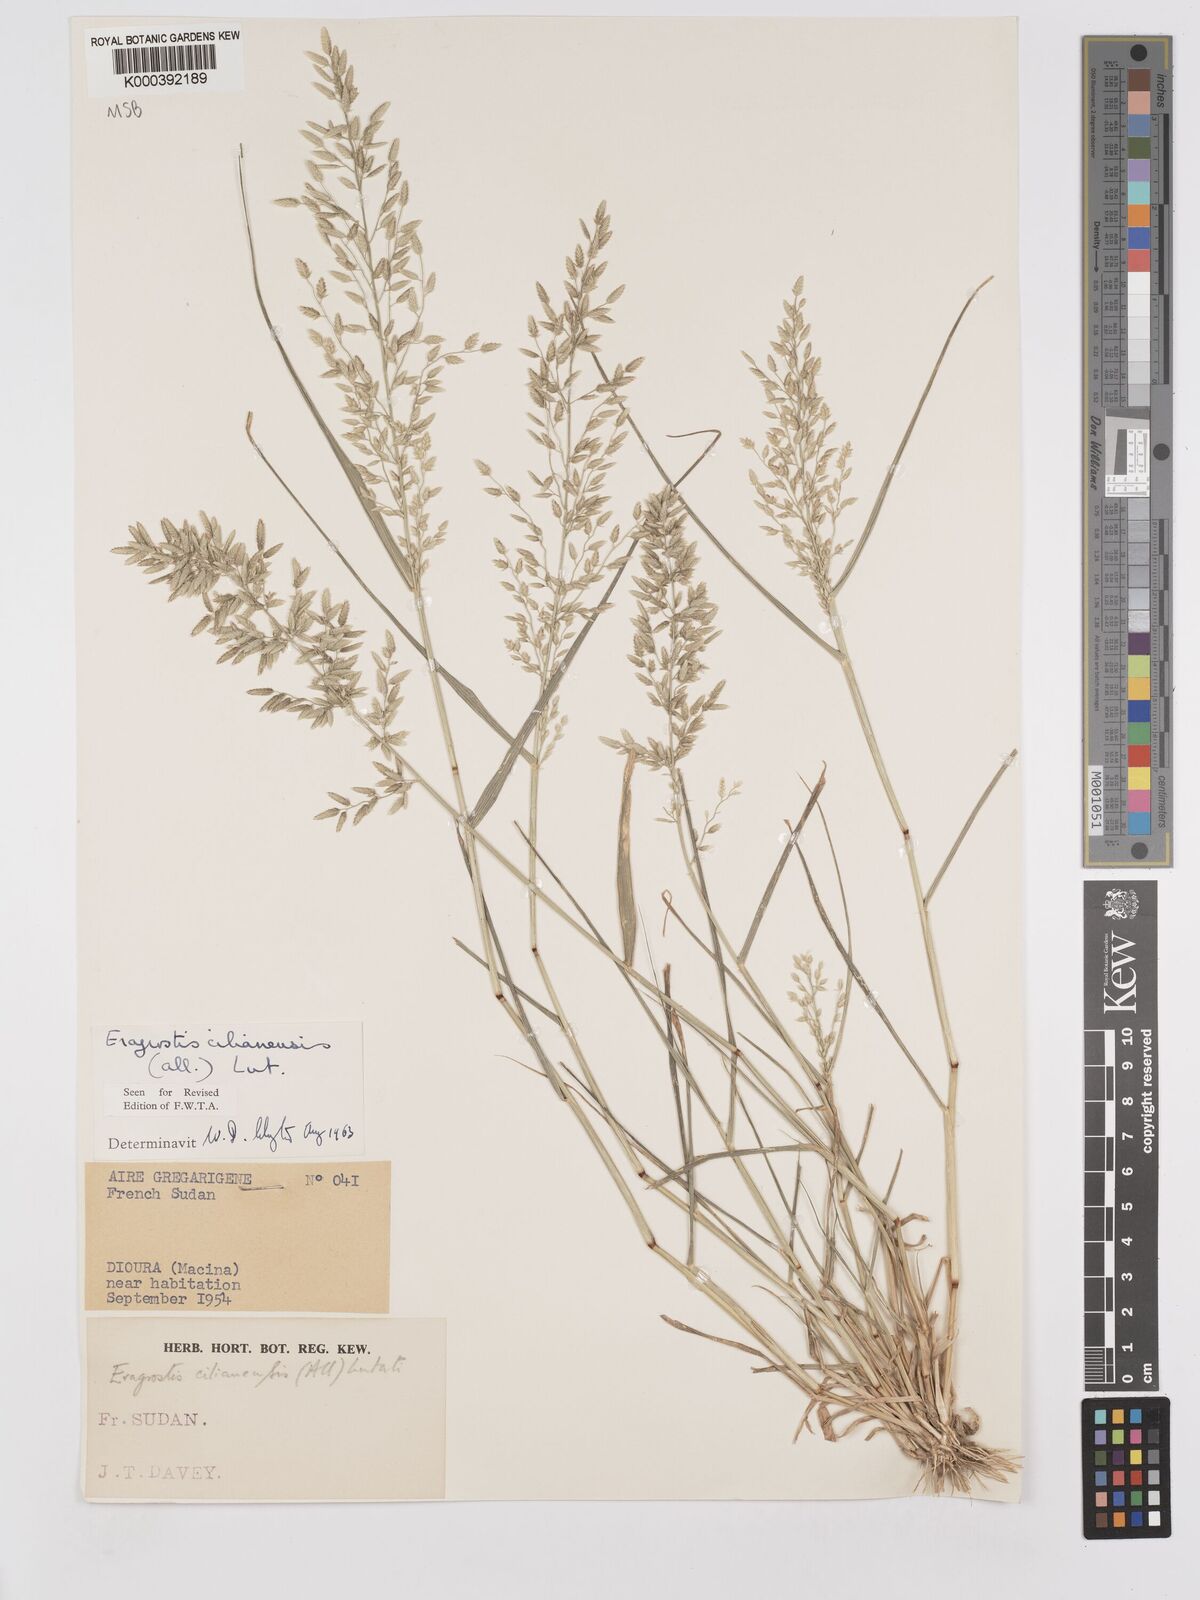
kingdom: Plantae
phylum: Tracheophyta
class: Liliopsida
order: Poales
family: Poaceae
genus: Eragrostis
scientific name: Eragrostis cilianensis
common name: Stinkgrass
